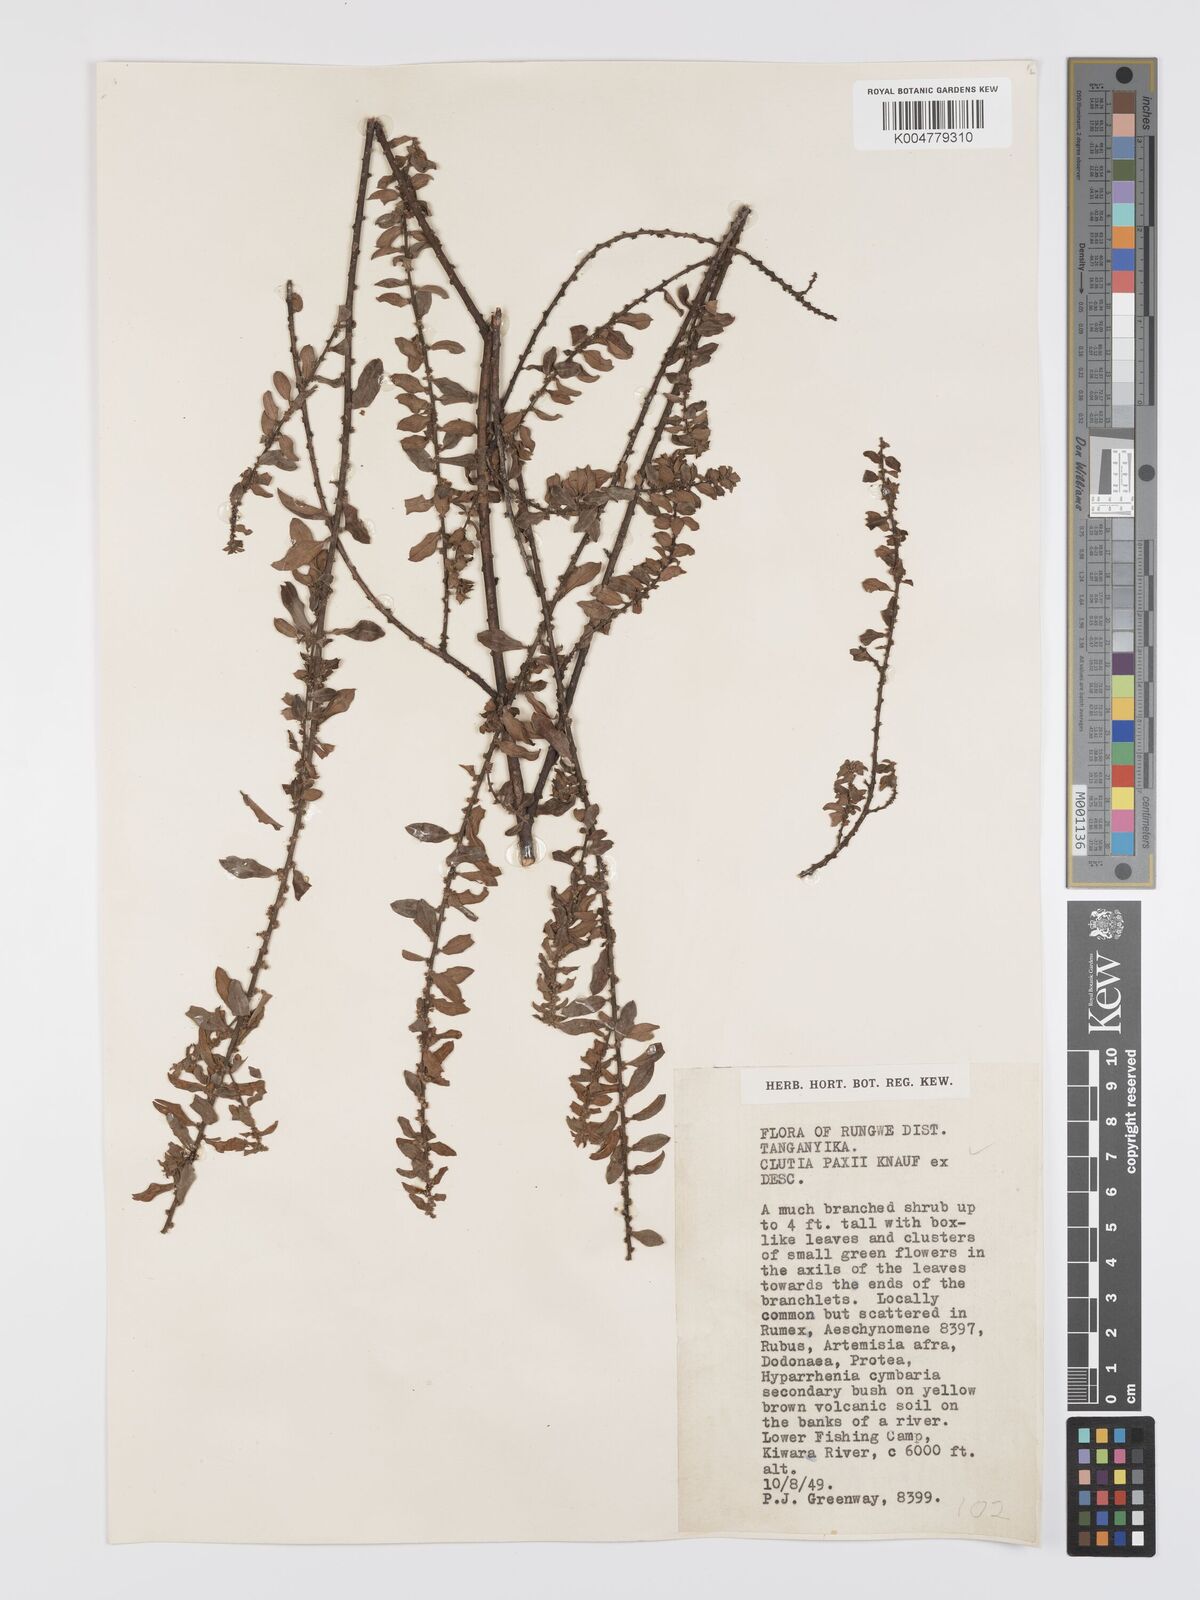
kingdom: Plantae
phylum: Tracheophyta
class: Magnoliopsida
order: Malpighiales
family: Peraceae
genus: Clutia
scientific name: Clutia paxii
